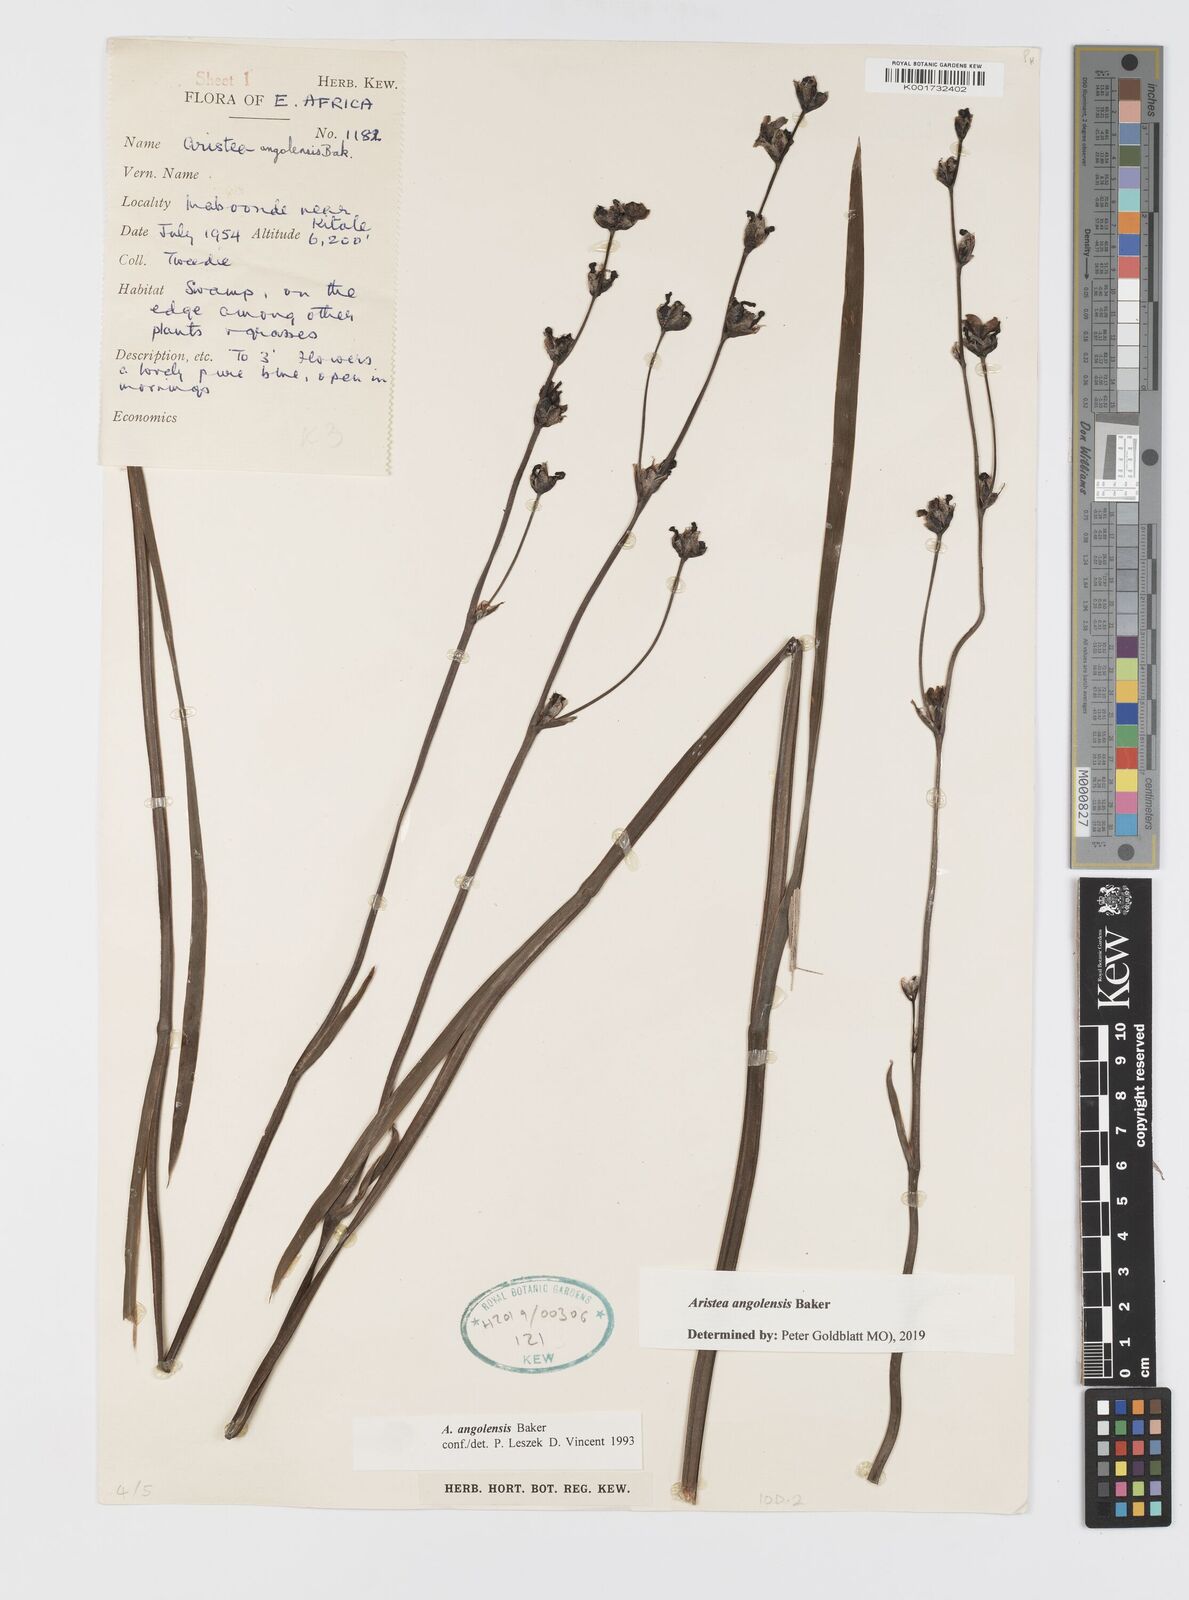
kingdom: Plantae
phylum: Tracheophyta
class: Liliopsida
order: Asparagales
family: Iridaceae
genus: Aristea
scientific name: Aristea angolensis
